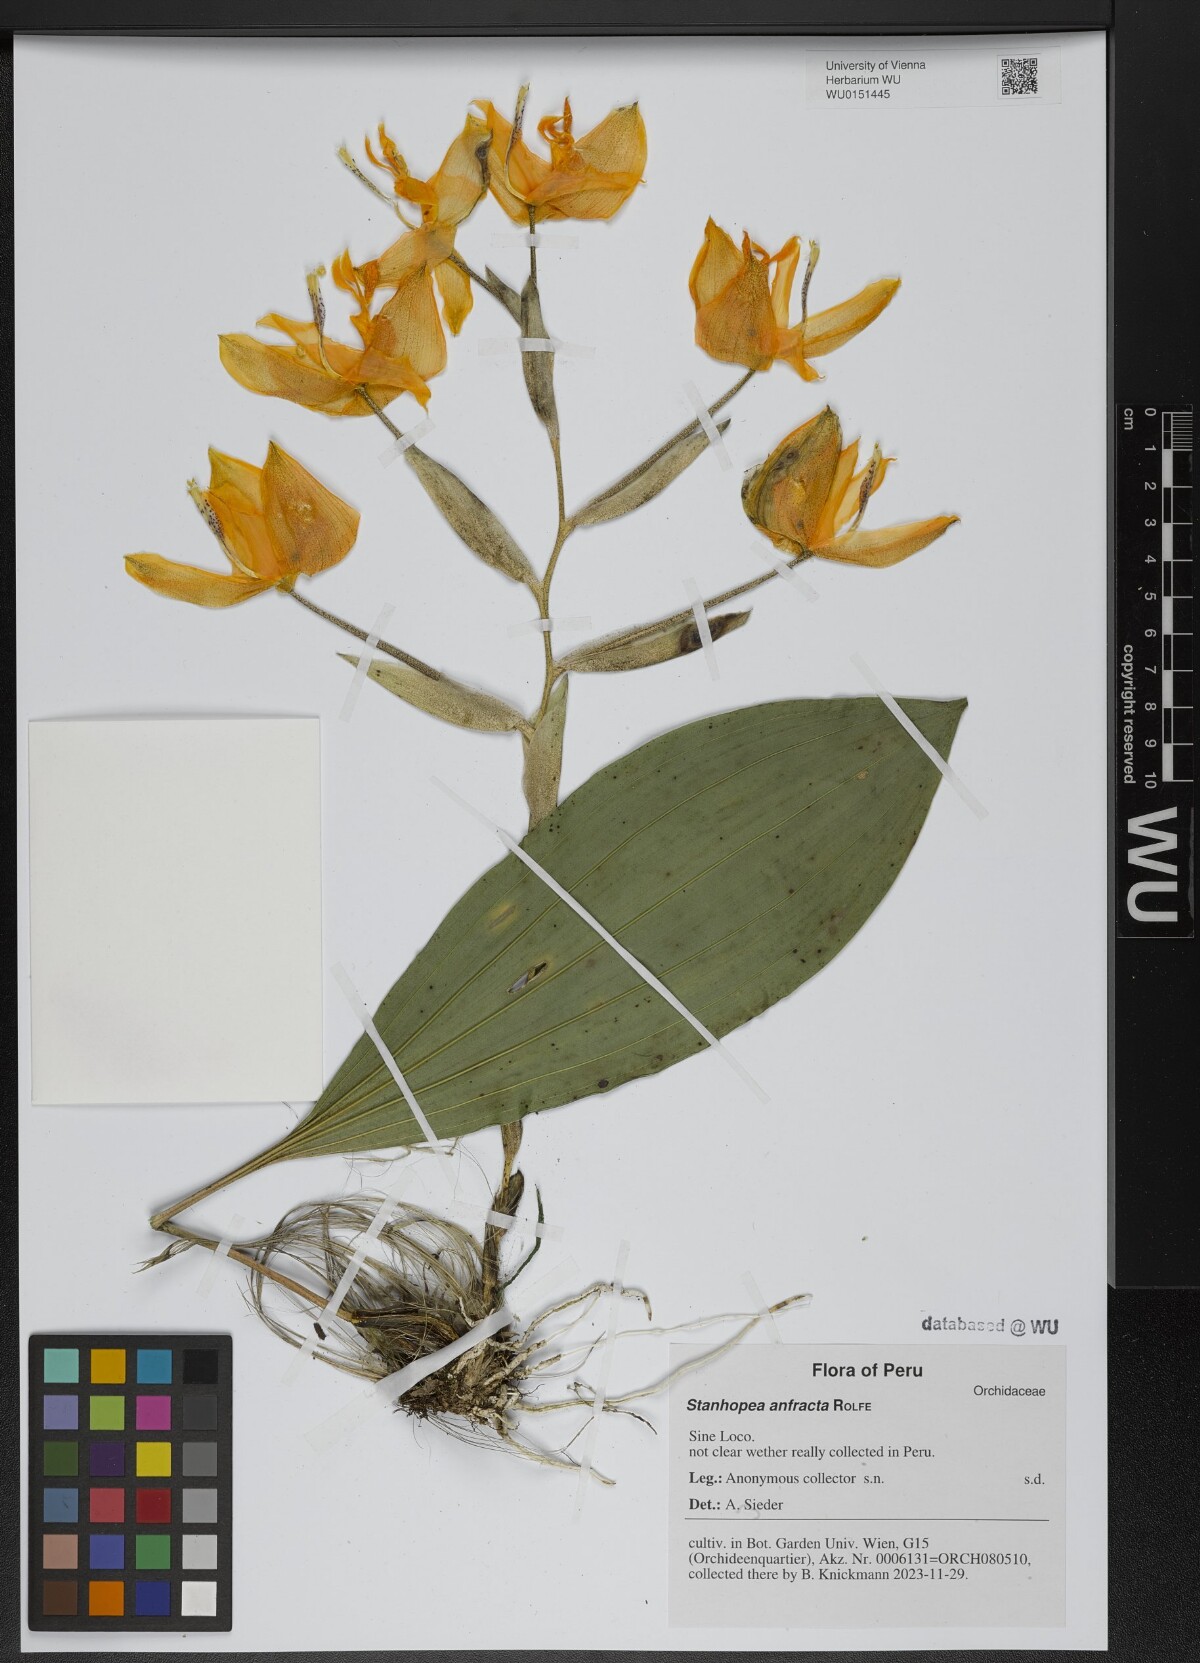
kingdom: Plantae
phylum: Tracheophyta
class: Liliopsida
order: Asparagales
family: Orchidaceae
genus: Stanhopea
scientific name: Stanhopea anfracta
